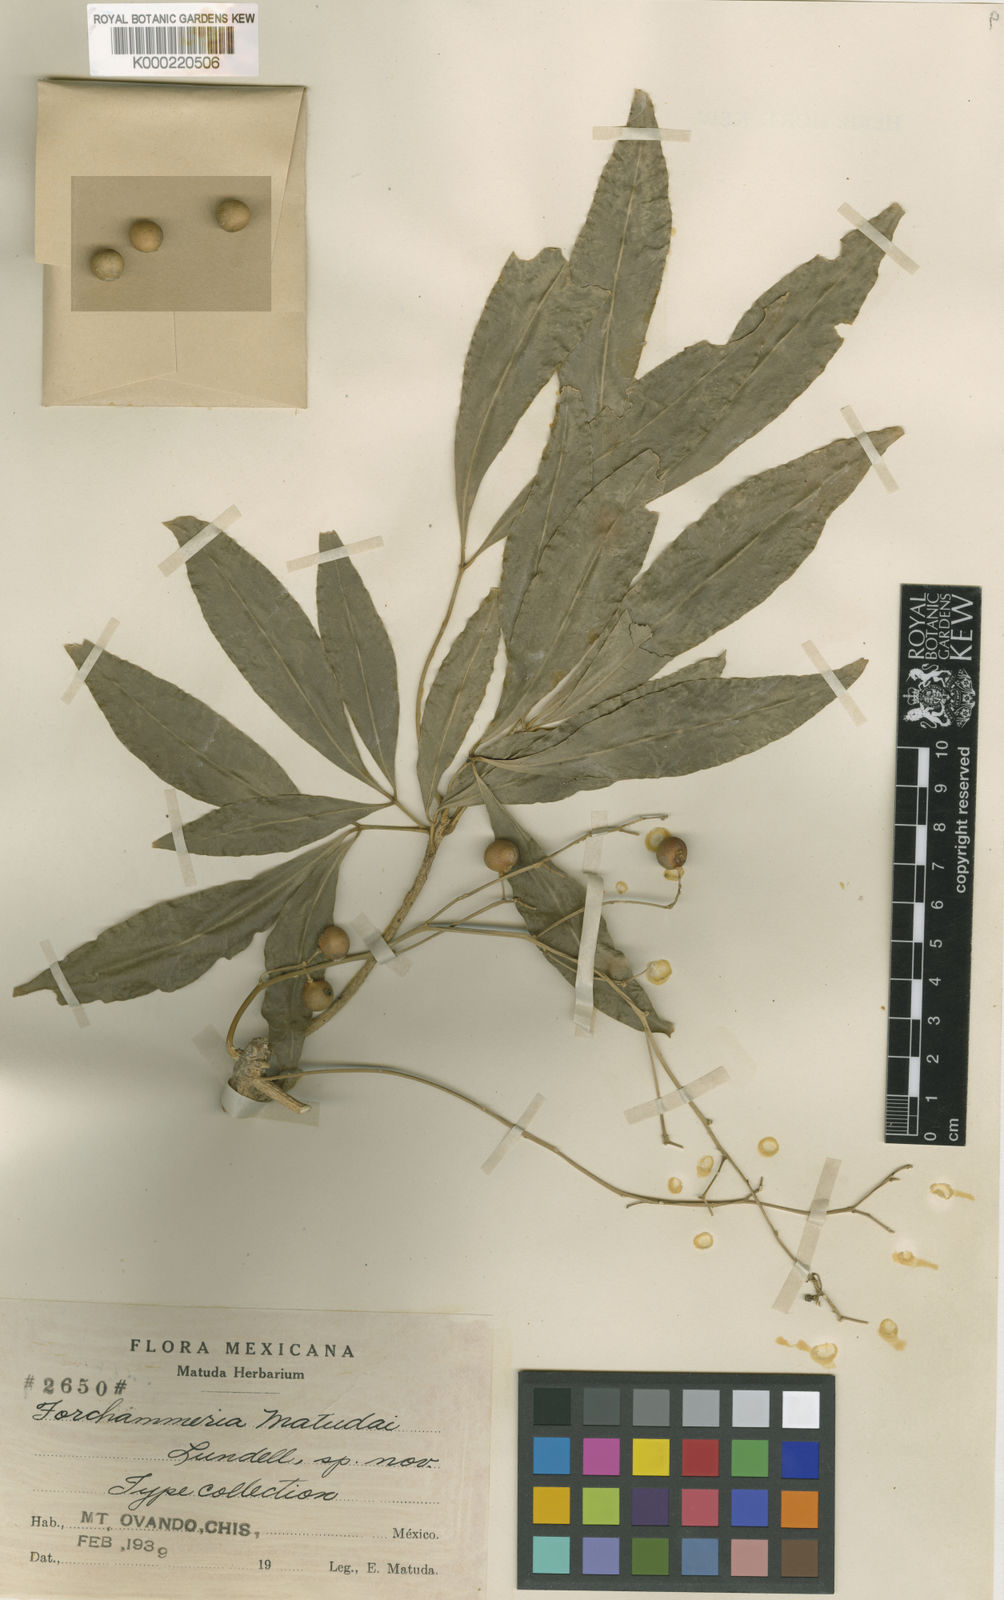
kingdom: Plantae
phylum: Tracheophyta
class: Magnoliopsida
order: Brassicales
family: Stixaceae
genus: Forchhammeria
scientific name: Forchhammeria
